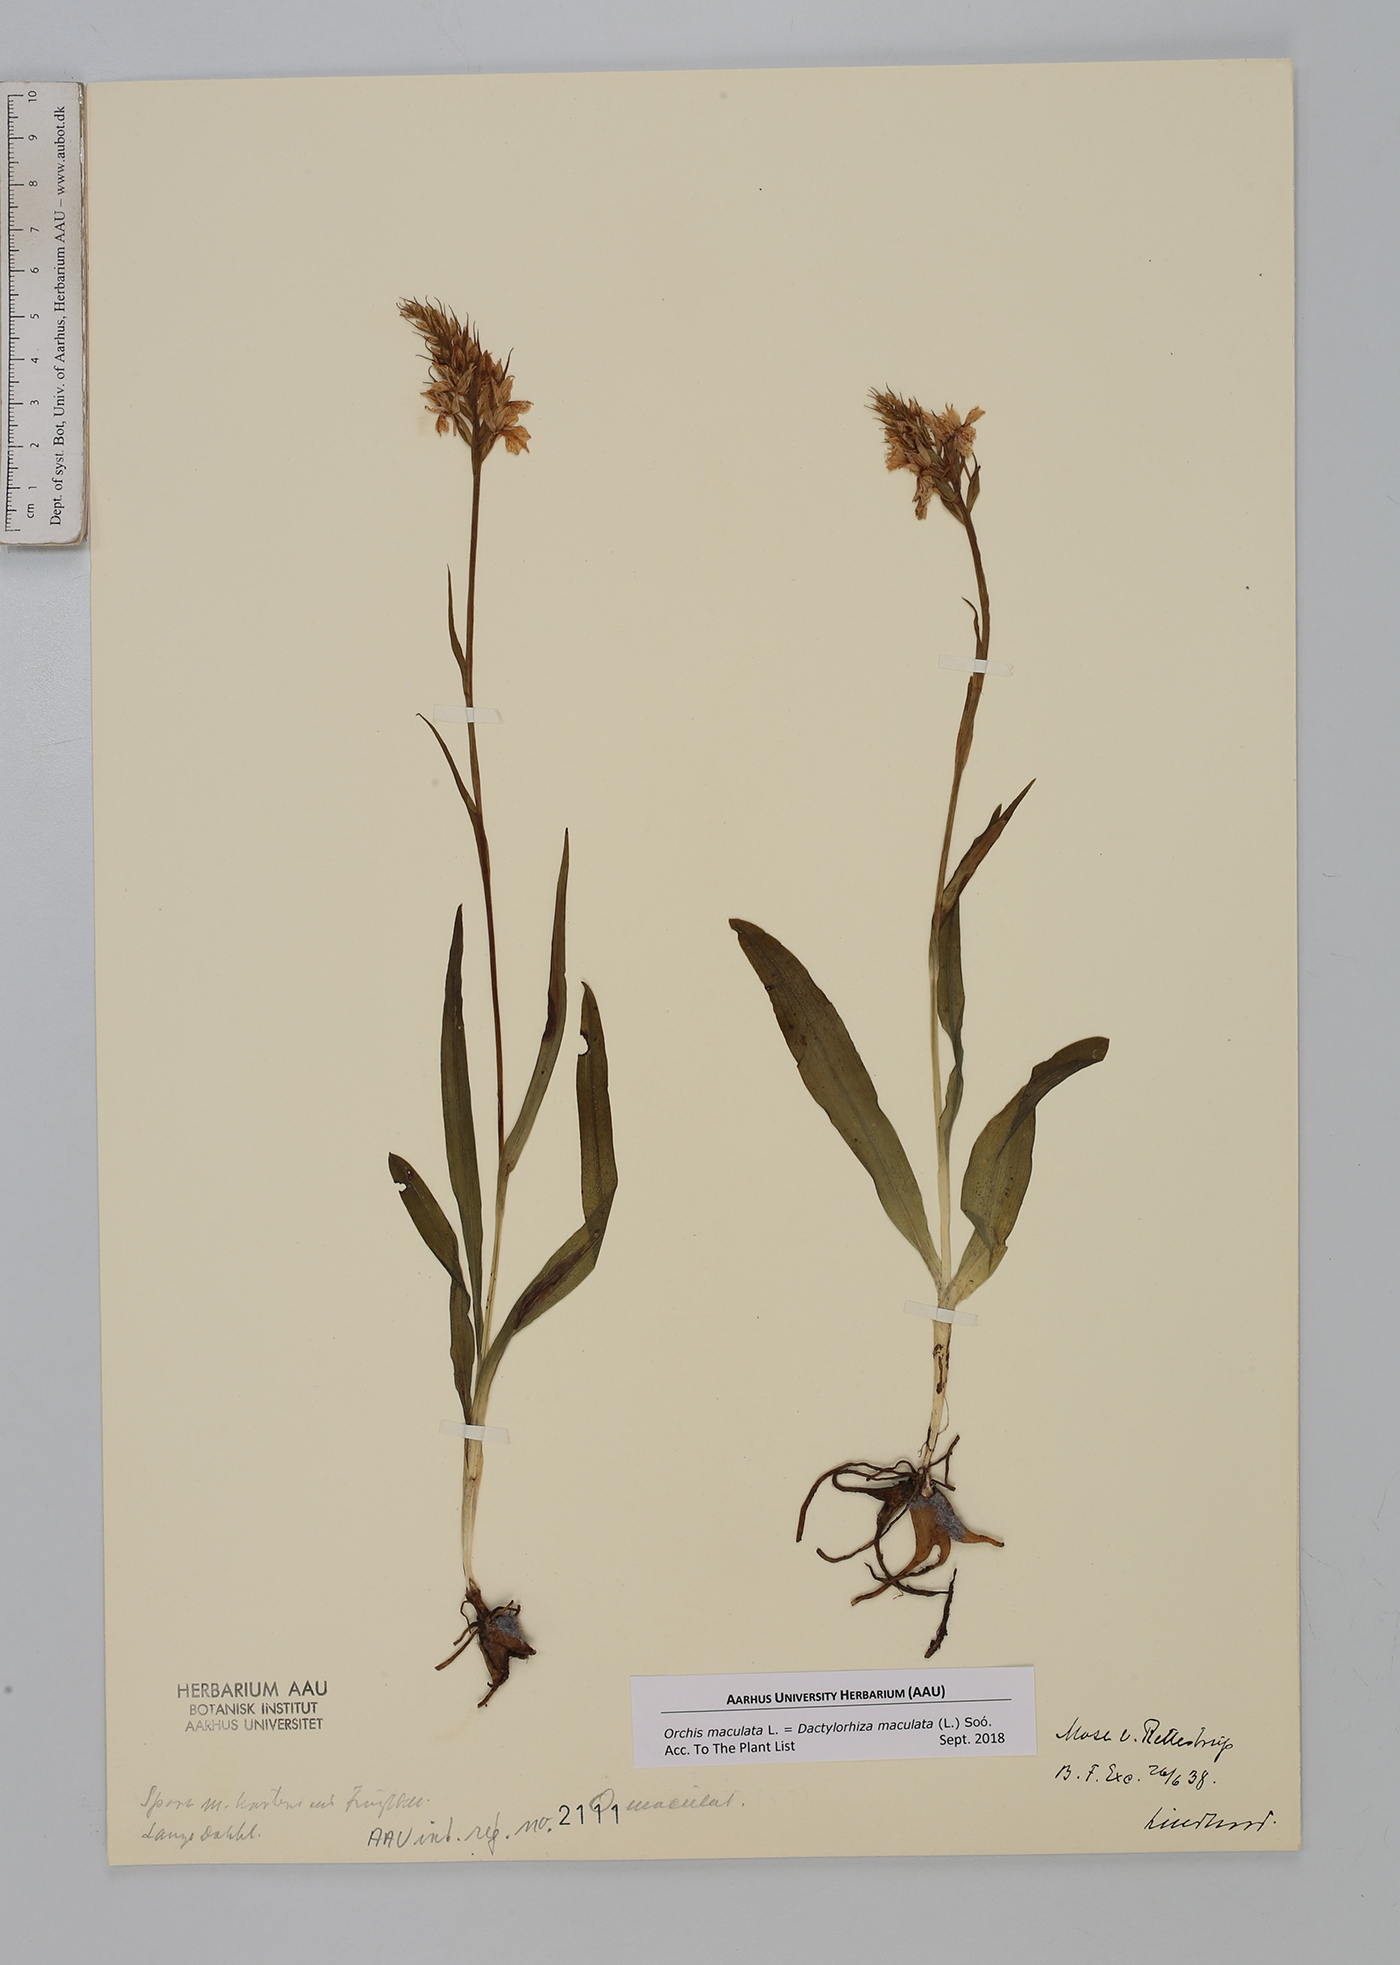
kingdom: Plantae
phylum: Tracheophyta
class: Liliopsida
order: Asparagales
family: Orchidaceae
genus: Dactylorhiza
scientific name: Dactylorhiza maculata
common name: Heath spotted-orchid
